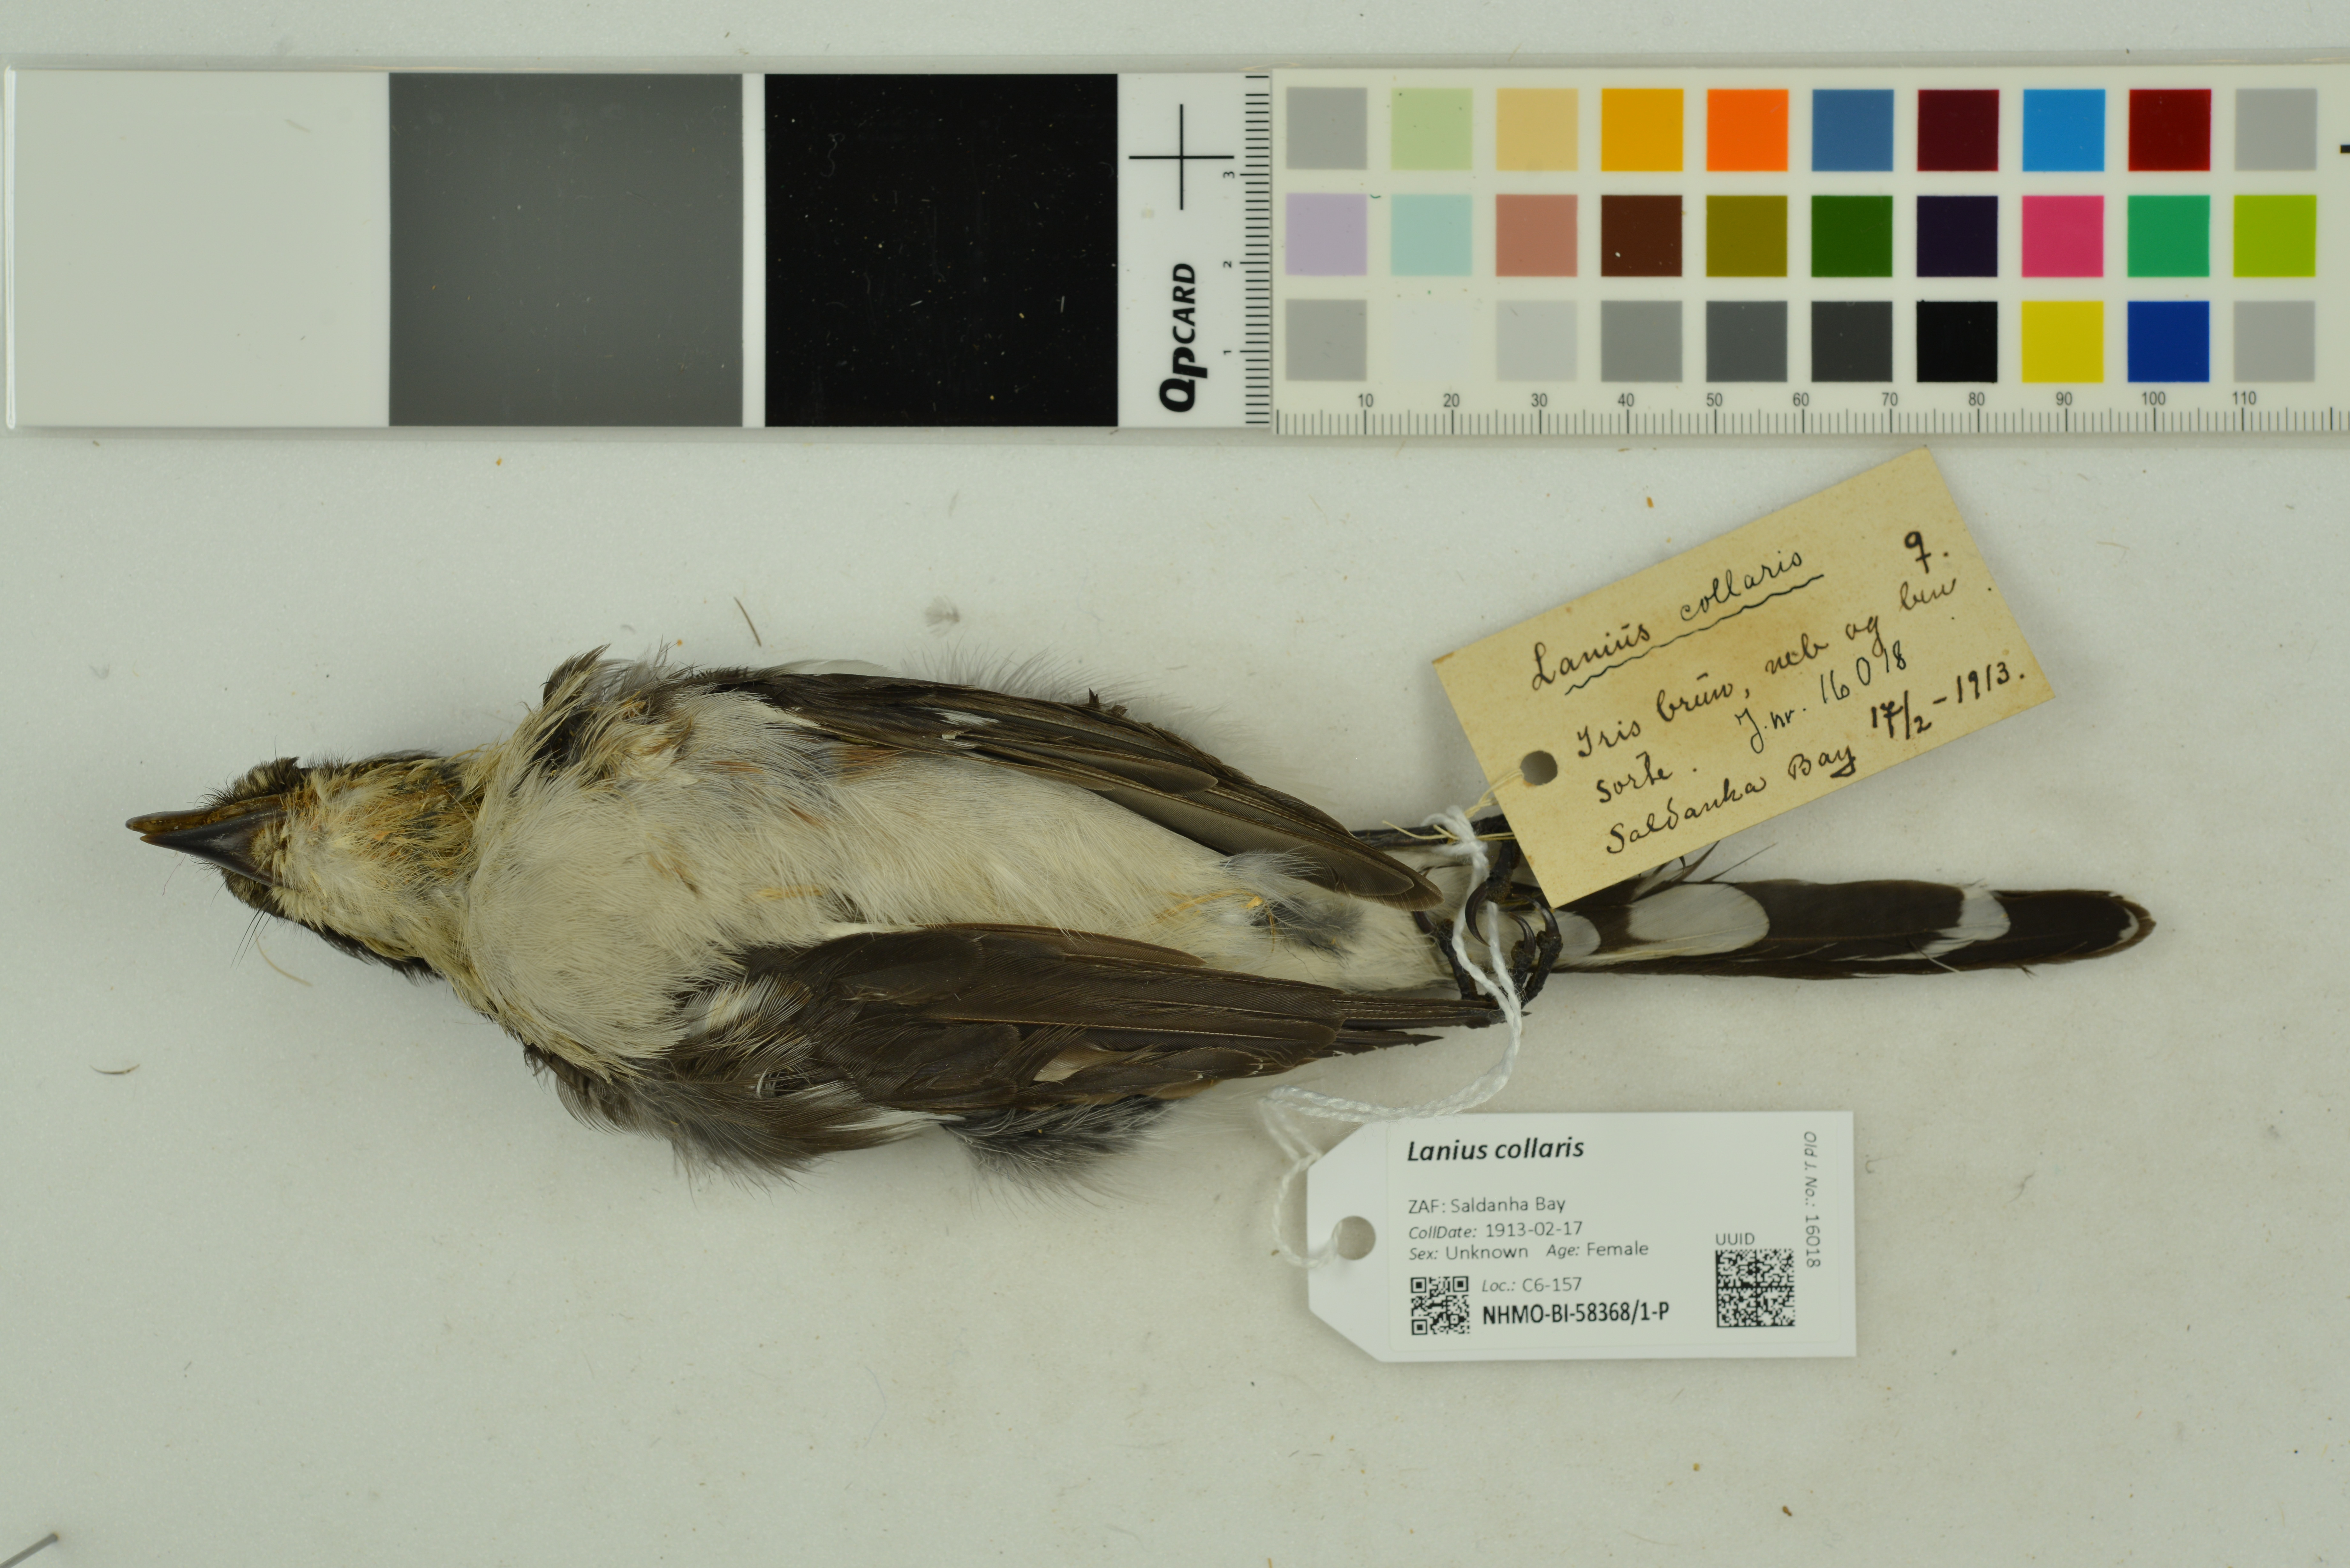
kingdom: Animalia
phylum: Chordata
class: Aves
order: Passeriformes
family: Laniidae
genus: Lanius
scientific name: Lanius collaris
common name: Southern fiscal
